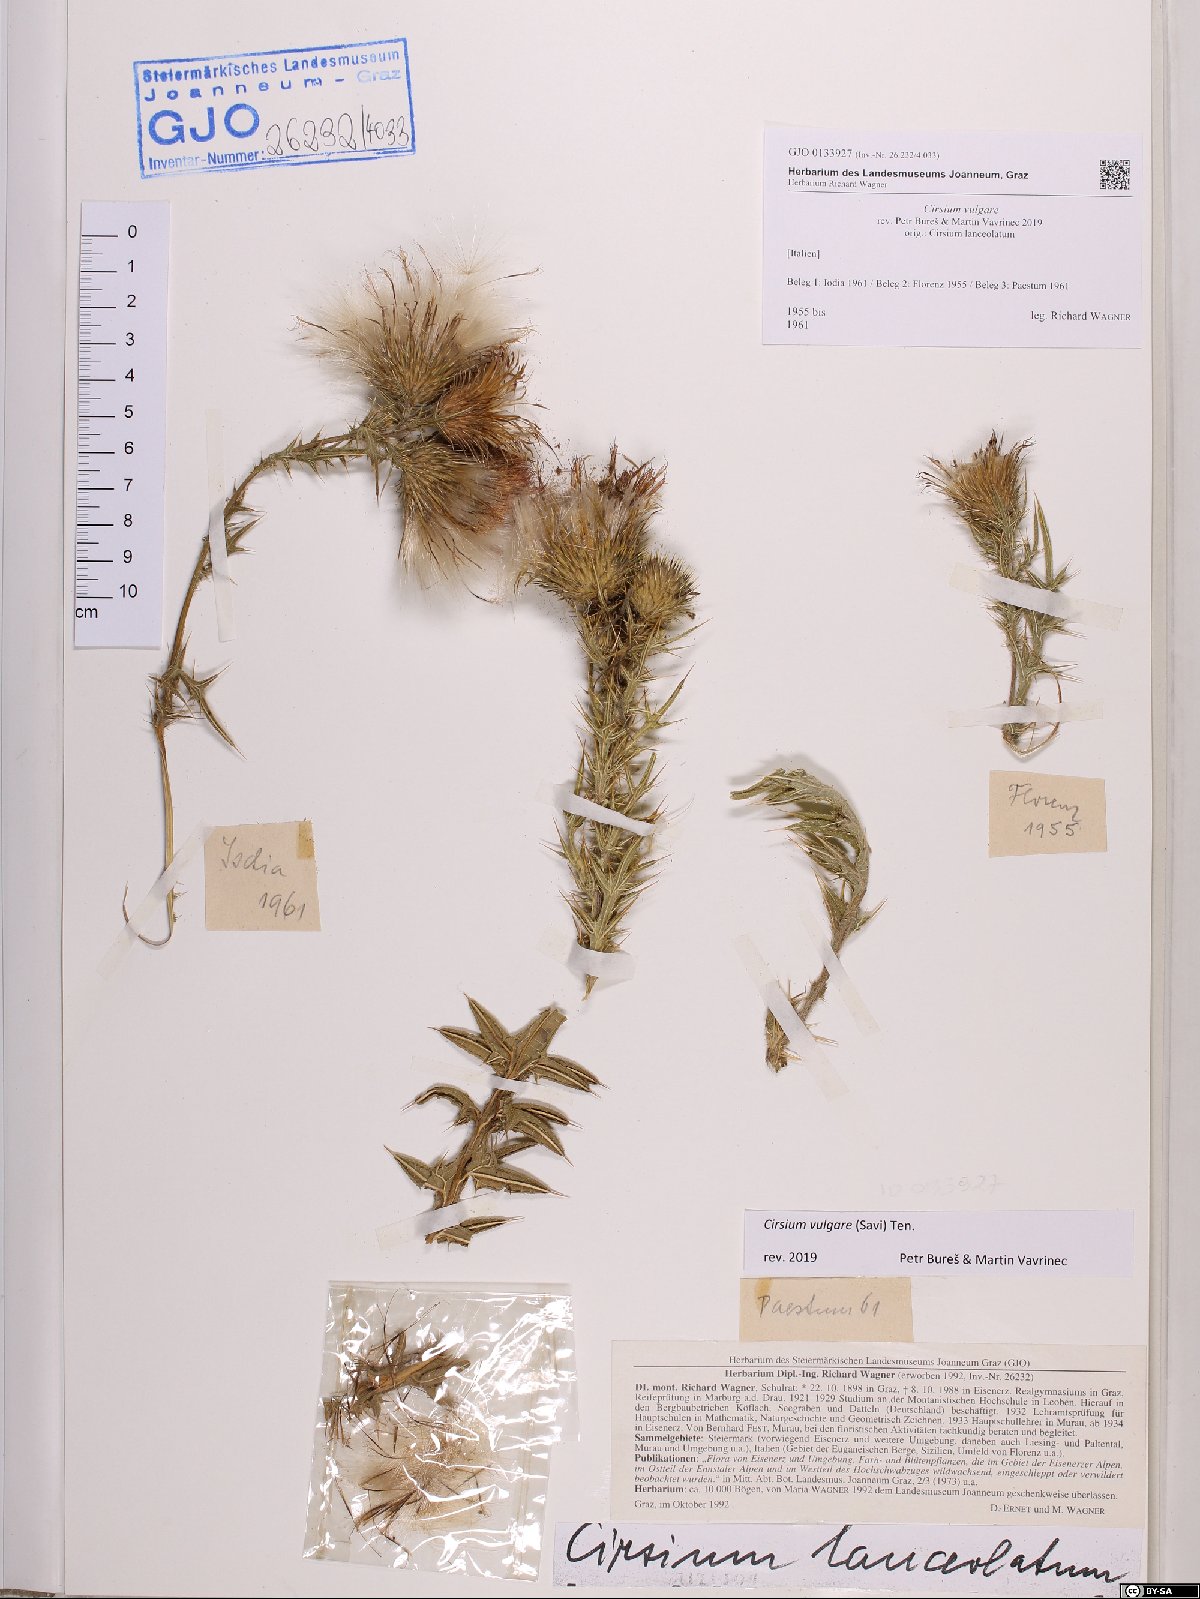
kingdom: Plantae
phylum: Tracheophyta
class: Magnoliopsida
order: Asterales
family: Asteraceae
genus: Cirsium
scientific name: Cirsium vulgare
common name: Bull thistle
